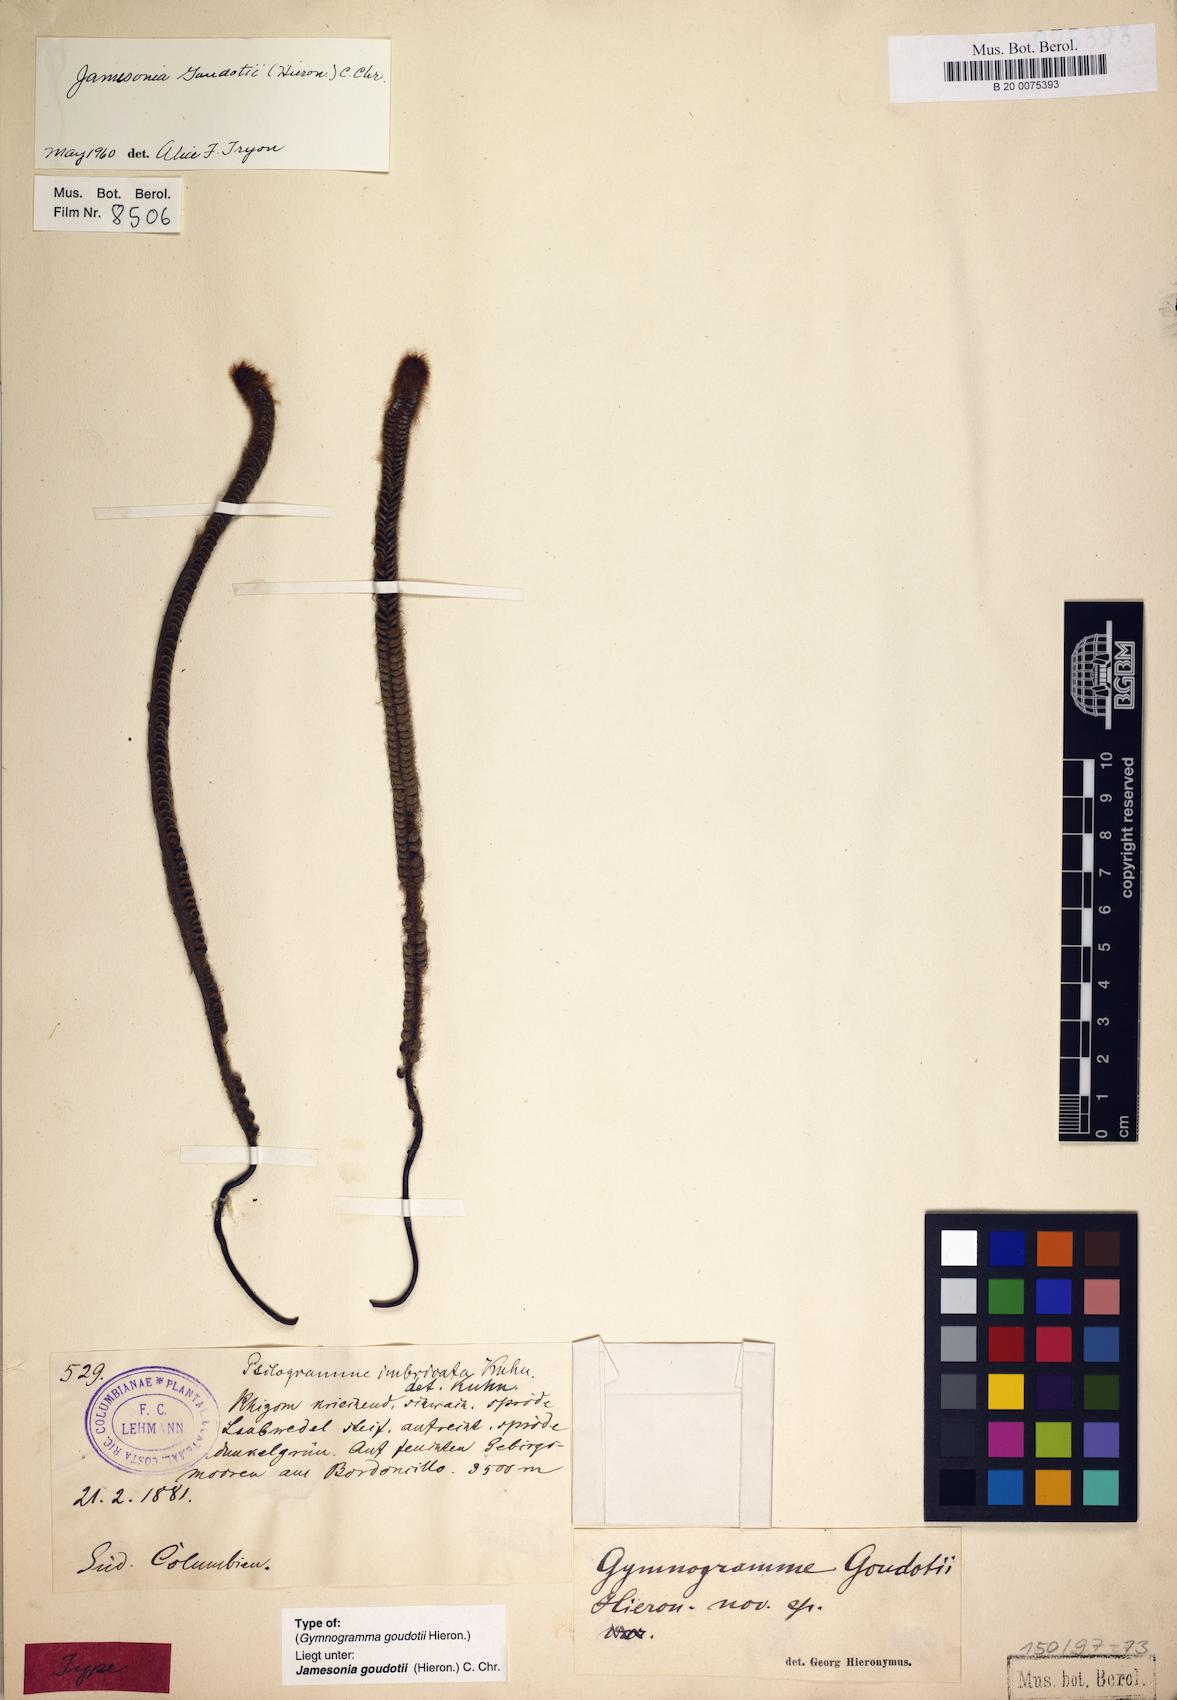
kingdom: Plantae
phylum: Tracheophyta
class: Polypodiopsida
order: Polypodiales
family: Pteridaceae
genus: Jamesonia
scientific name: Jamesonia goudotii
